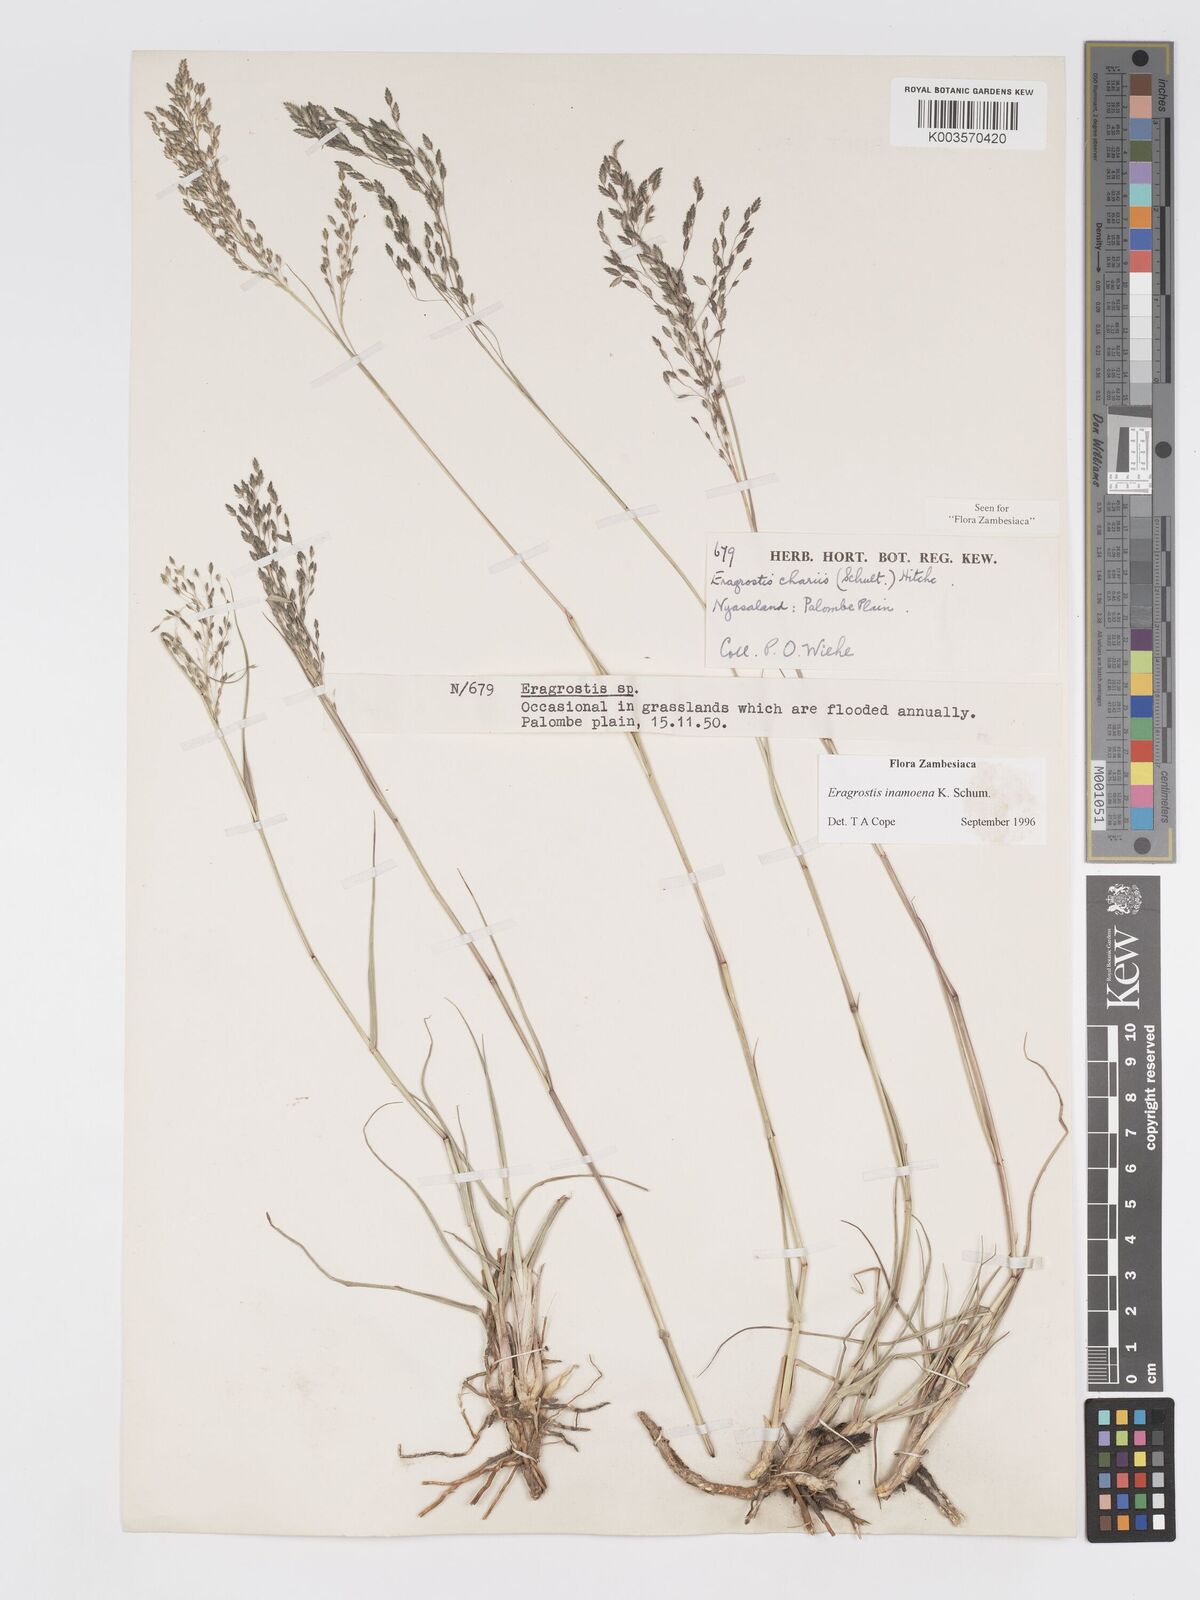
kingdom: Plantae
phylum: Tracheophyta
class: Liliopsida
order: Poales
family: Poaceae
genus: Eragrostis
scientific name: Eragrostis inamoena
